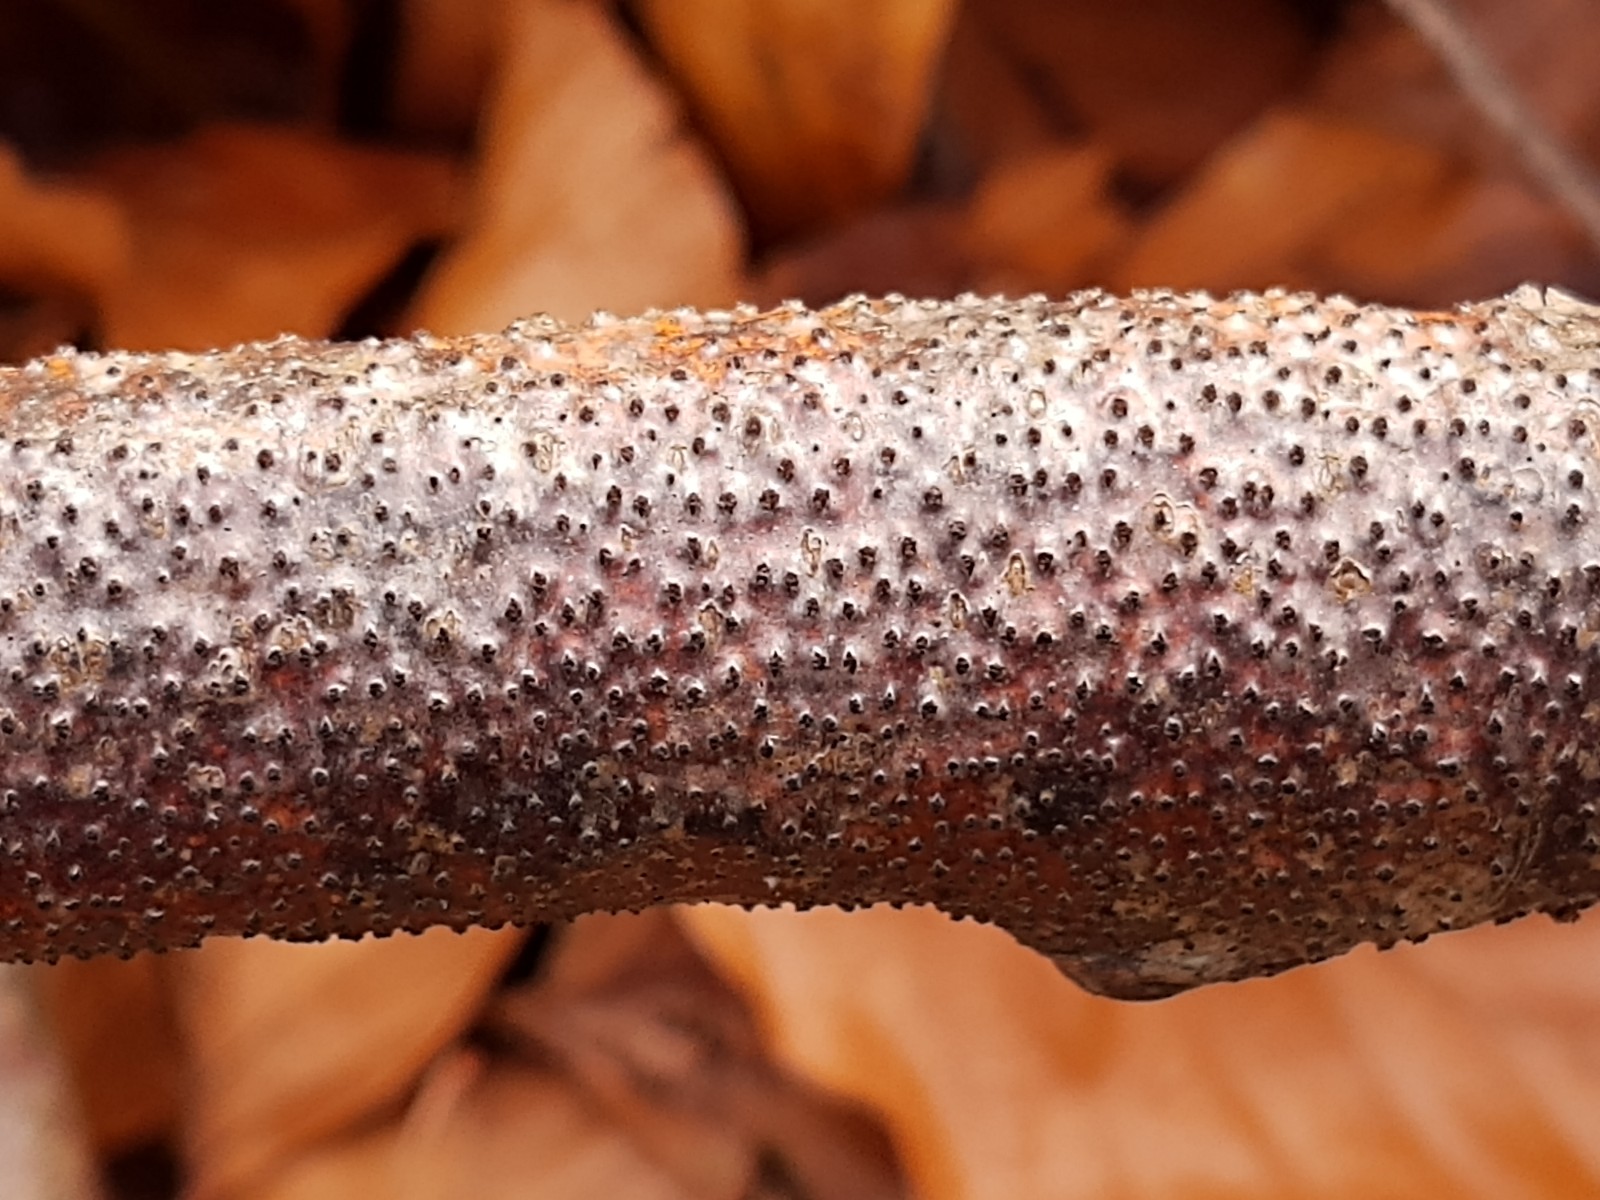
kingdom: Fungi
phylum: Ascomycota
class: Sordariomycetes
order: Xylariales
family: Diatrypaceae
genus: Eutypella
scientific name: Eutypella quaternata
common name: bøge-korsprik
